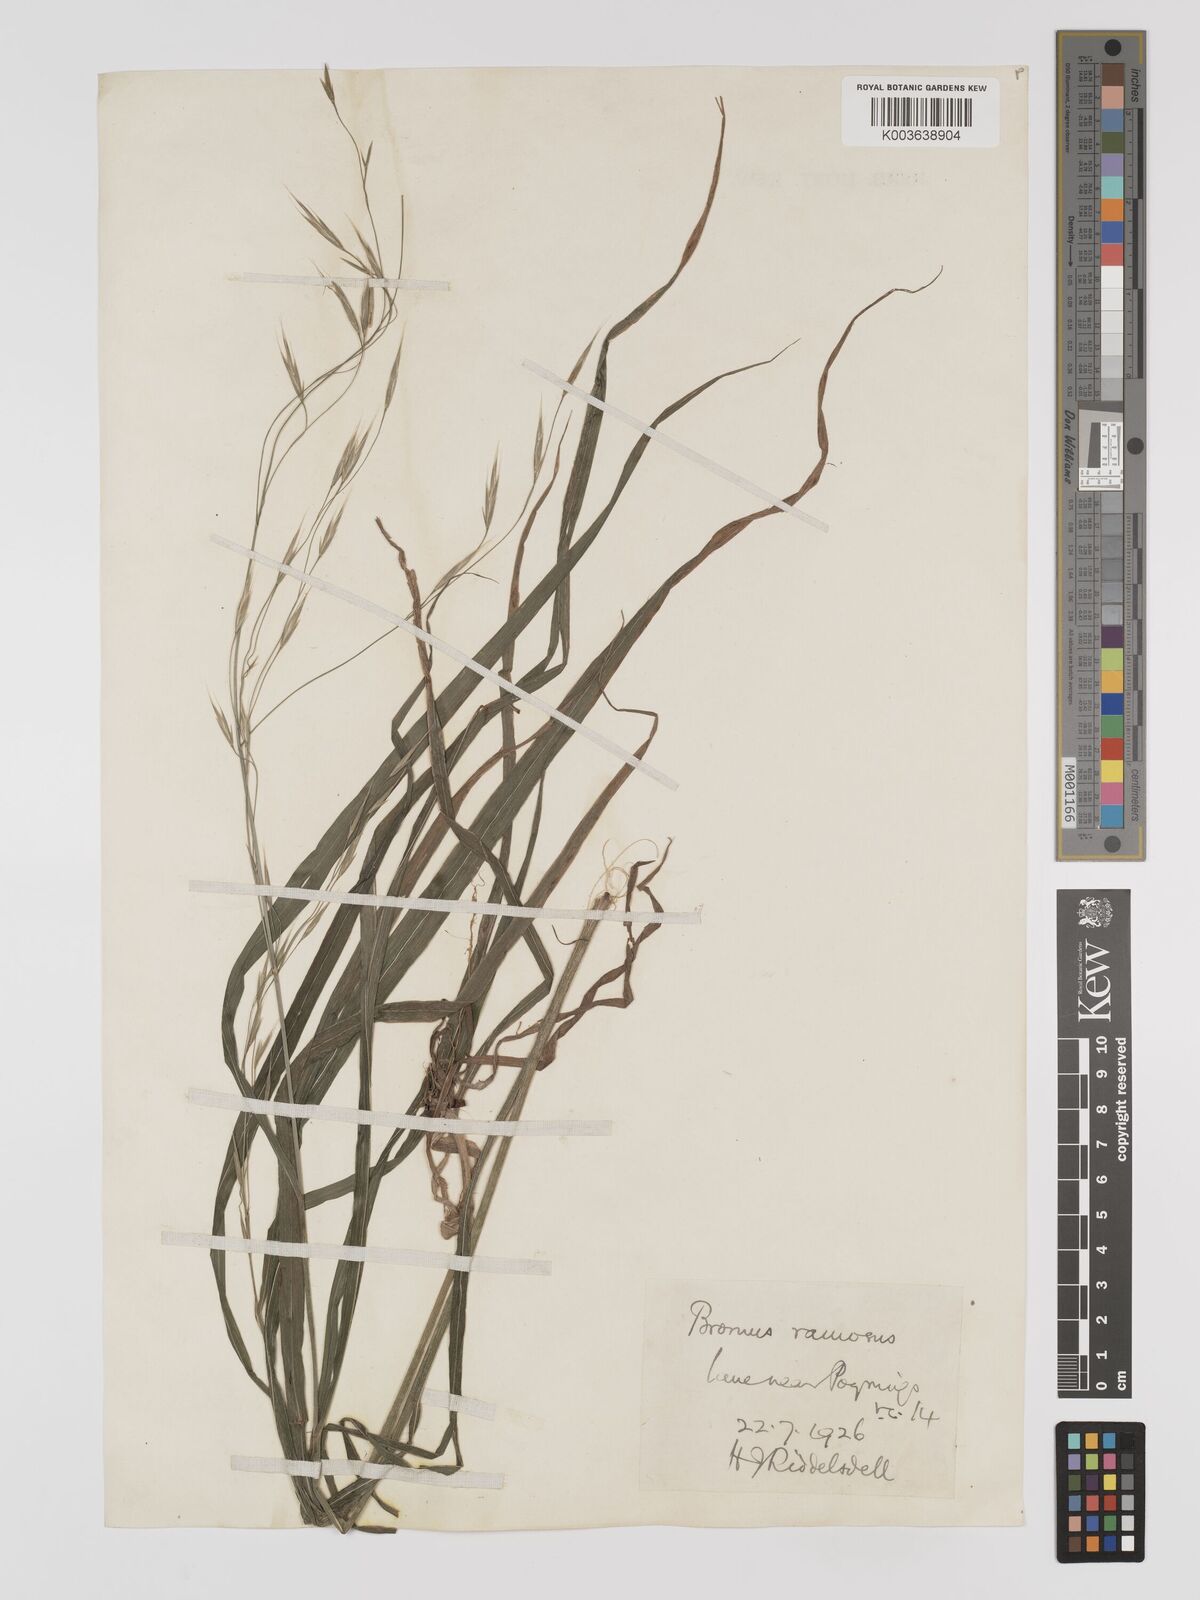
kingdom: Plantae
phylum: Tracheophyta
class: Liliopsida
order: Poales
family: Poaceae
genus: Bromus
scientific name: Bromus ramosus
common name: Hairy brome
